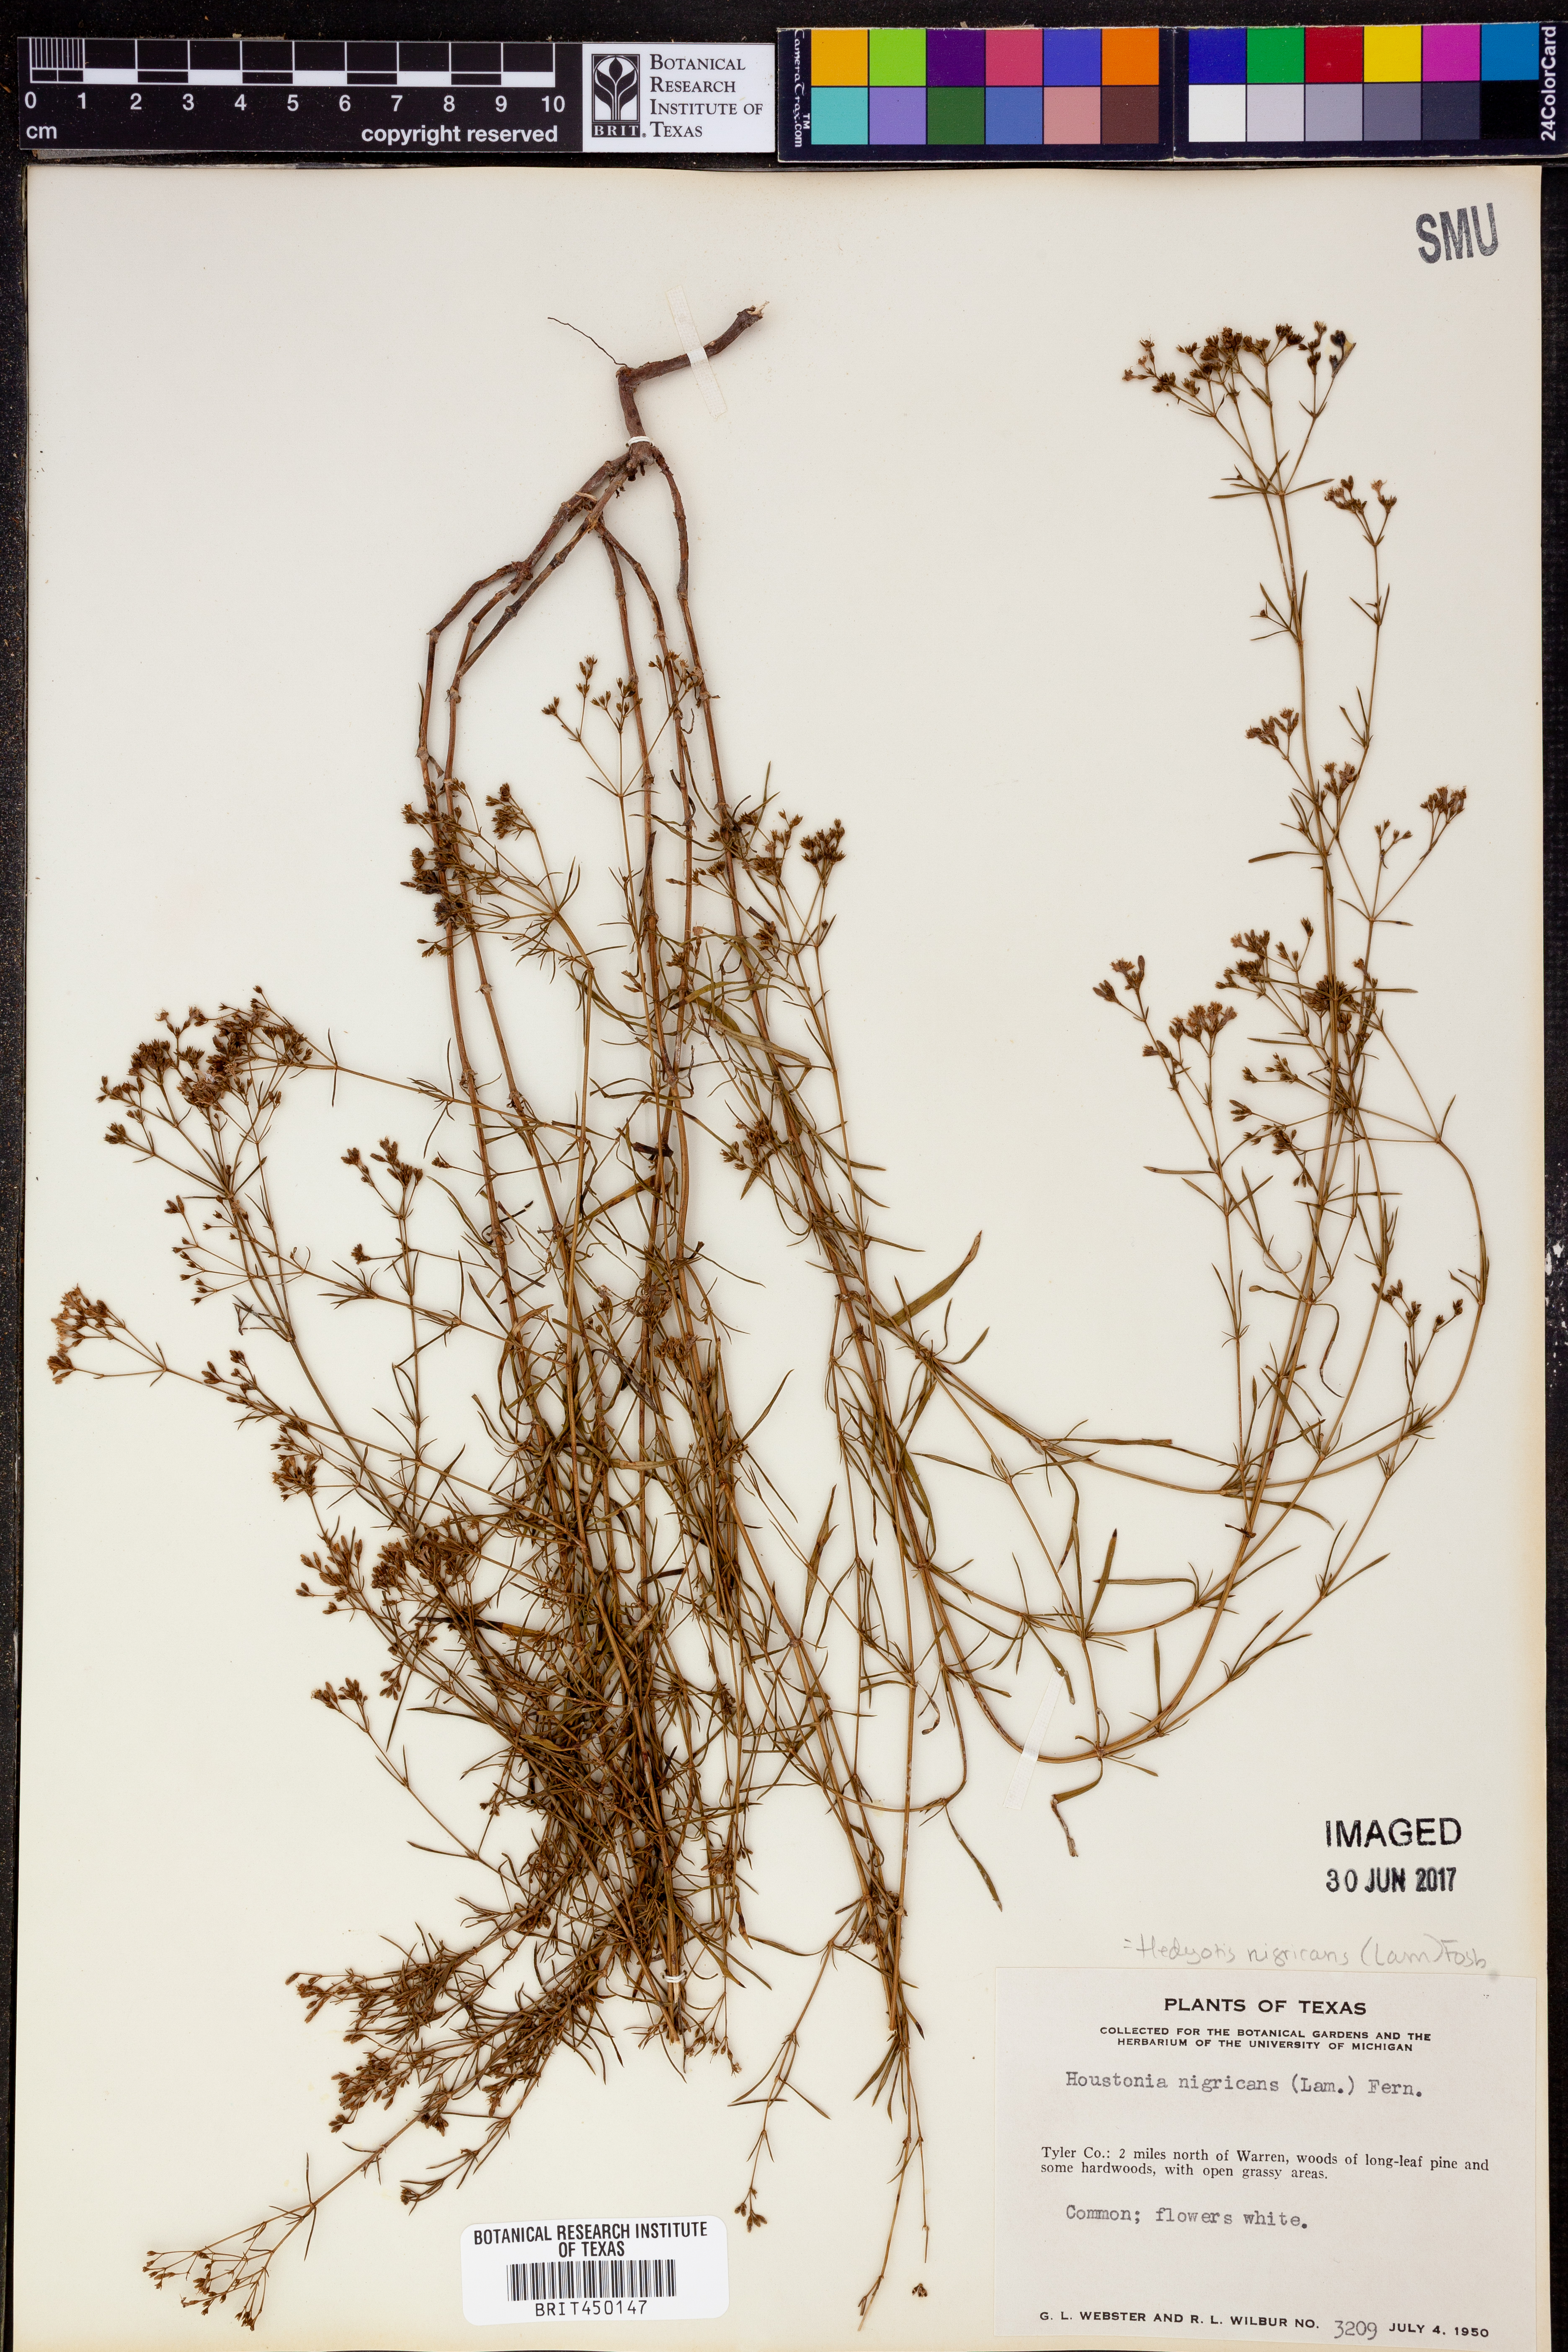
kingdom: Plantae
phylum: Tracheophyta
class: Magnoliopsida
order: Gentianales
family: Rubiaceae
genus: Stenaria
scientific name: Stenaria nigricans
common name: Diamondflowers
